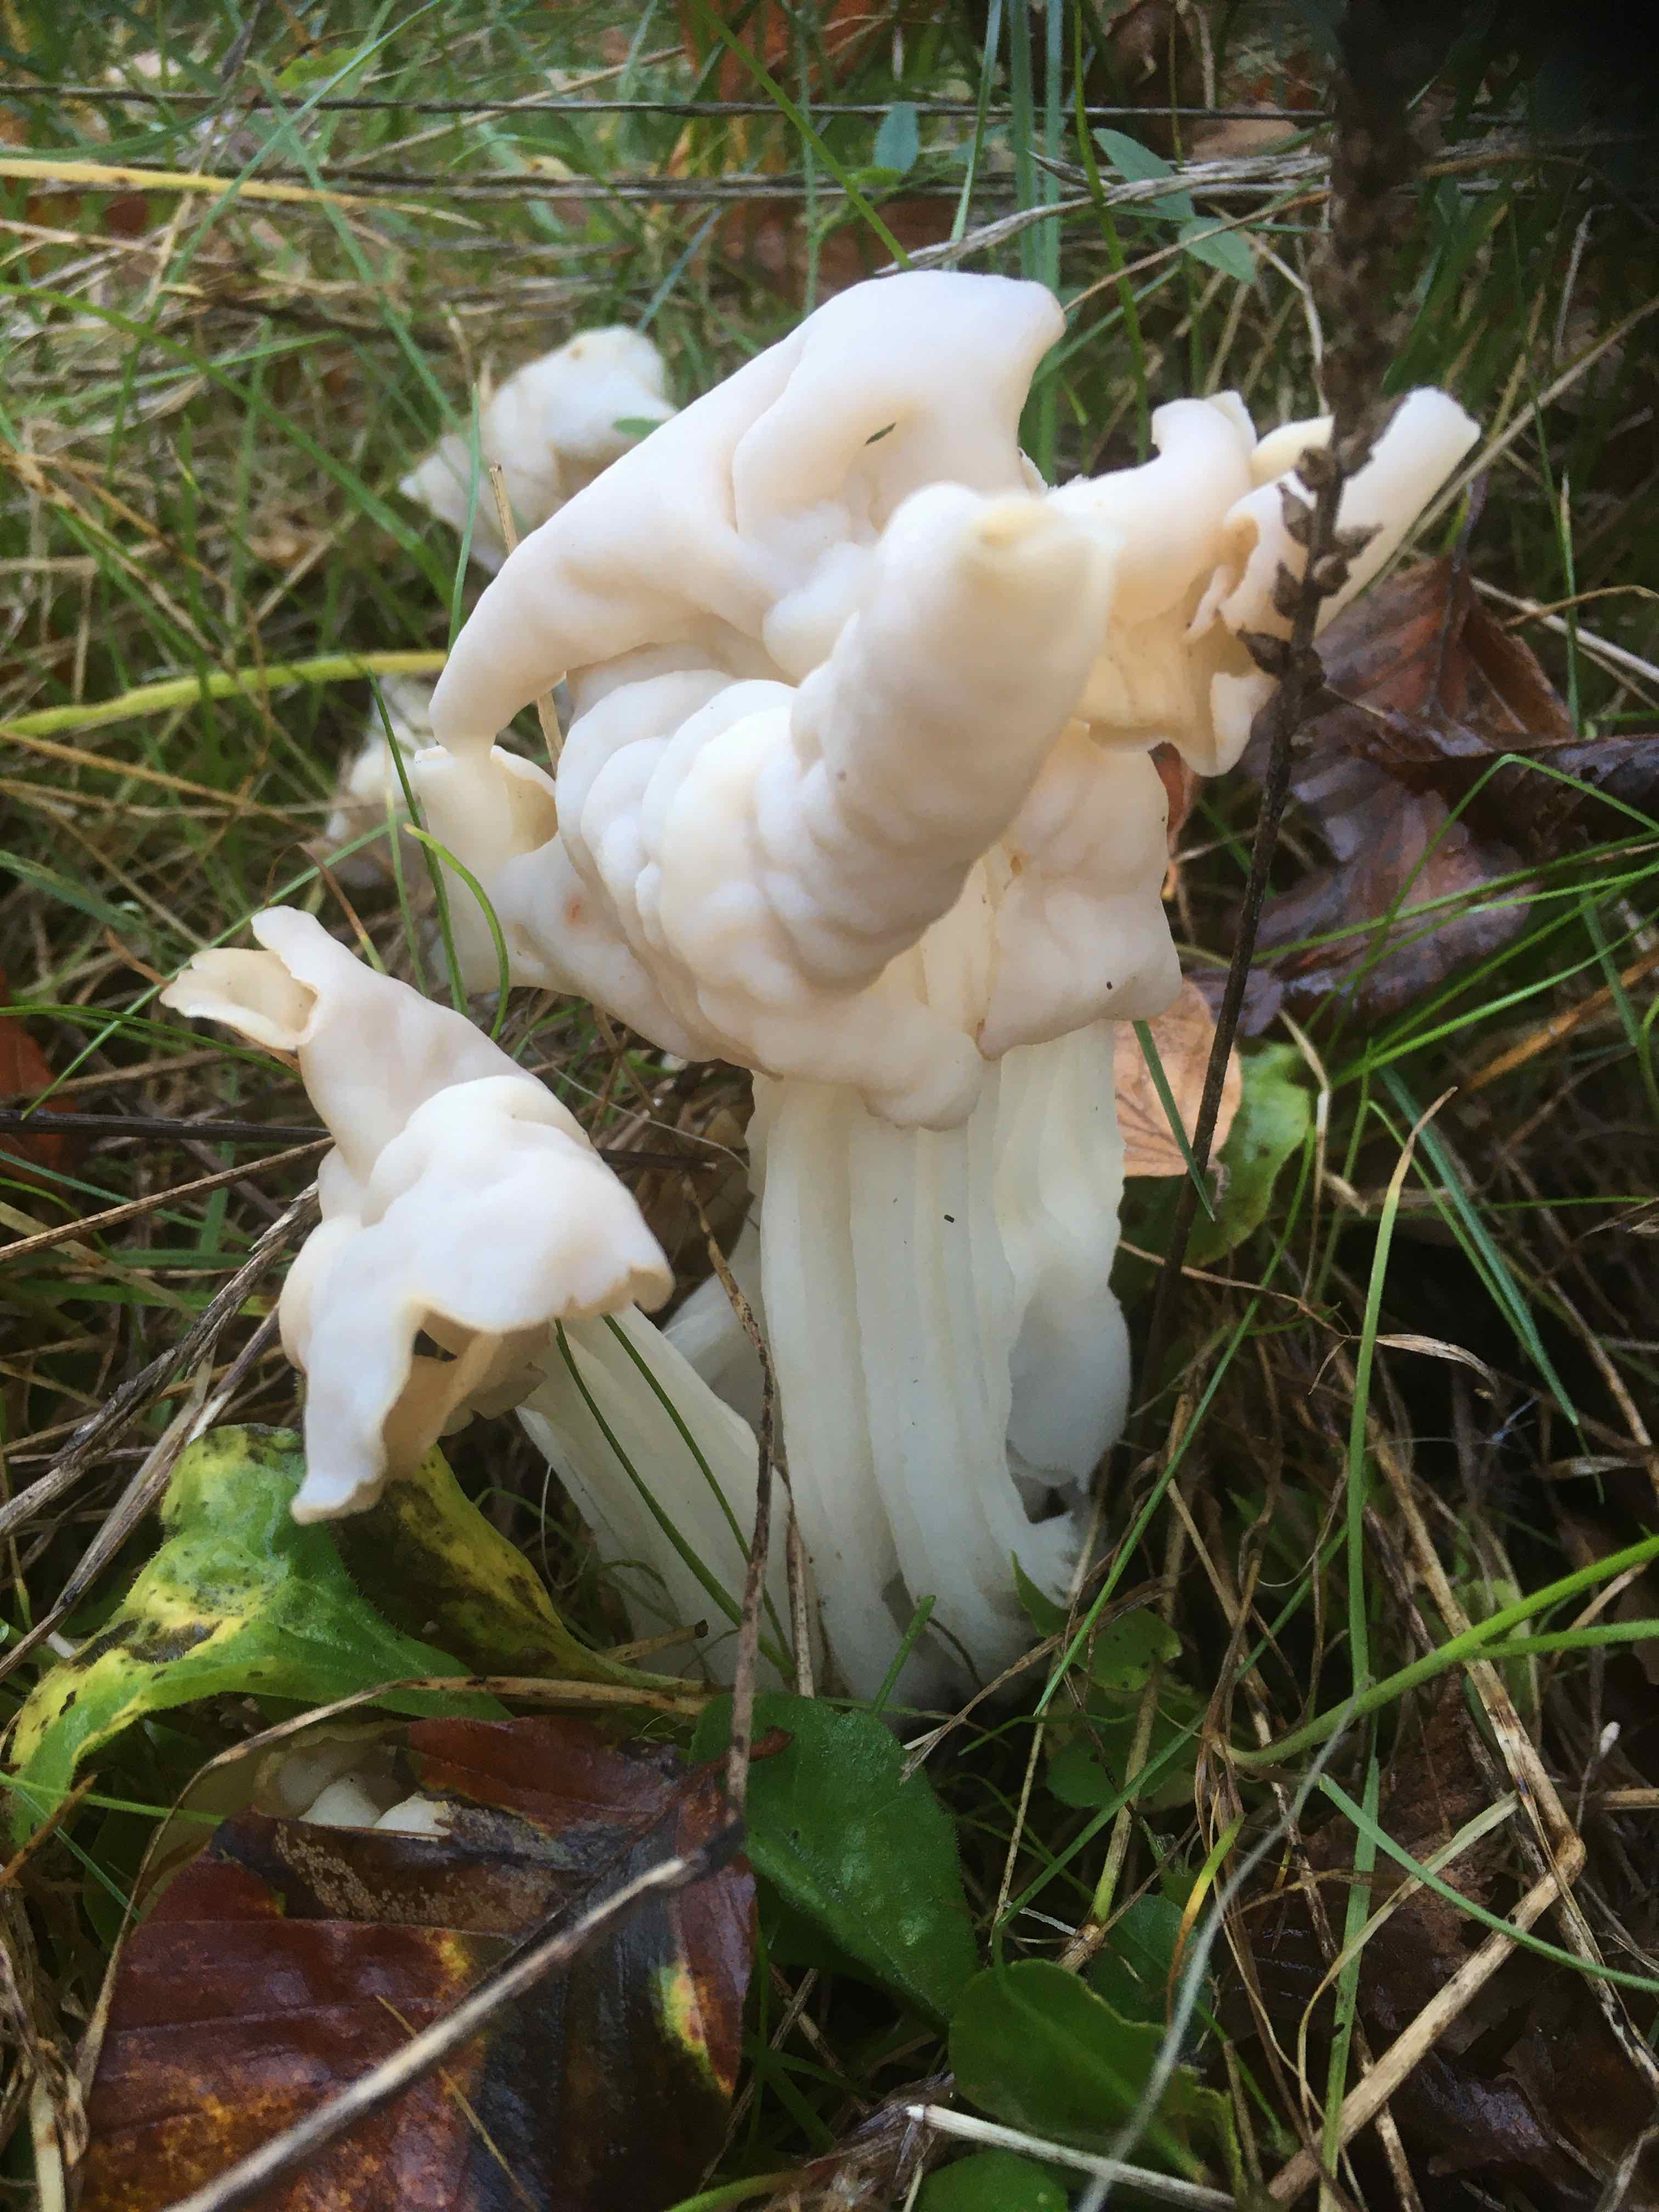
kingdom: Fungi
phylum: Ascomycota
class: Pezizomycetes
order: Pezizales
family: Helvellaceae
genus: Helvella
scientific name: Helvella crispa
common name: kruset foldhat
